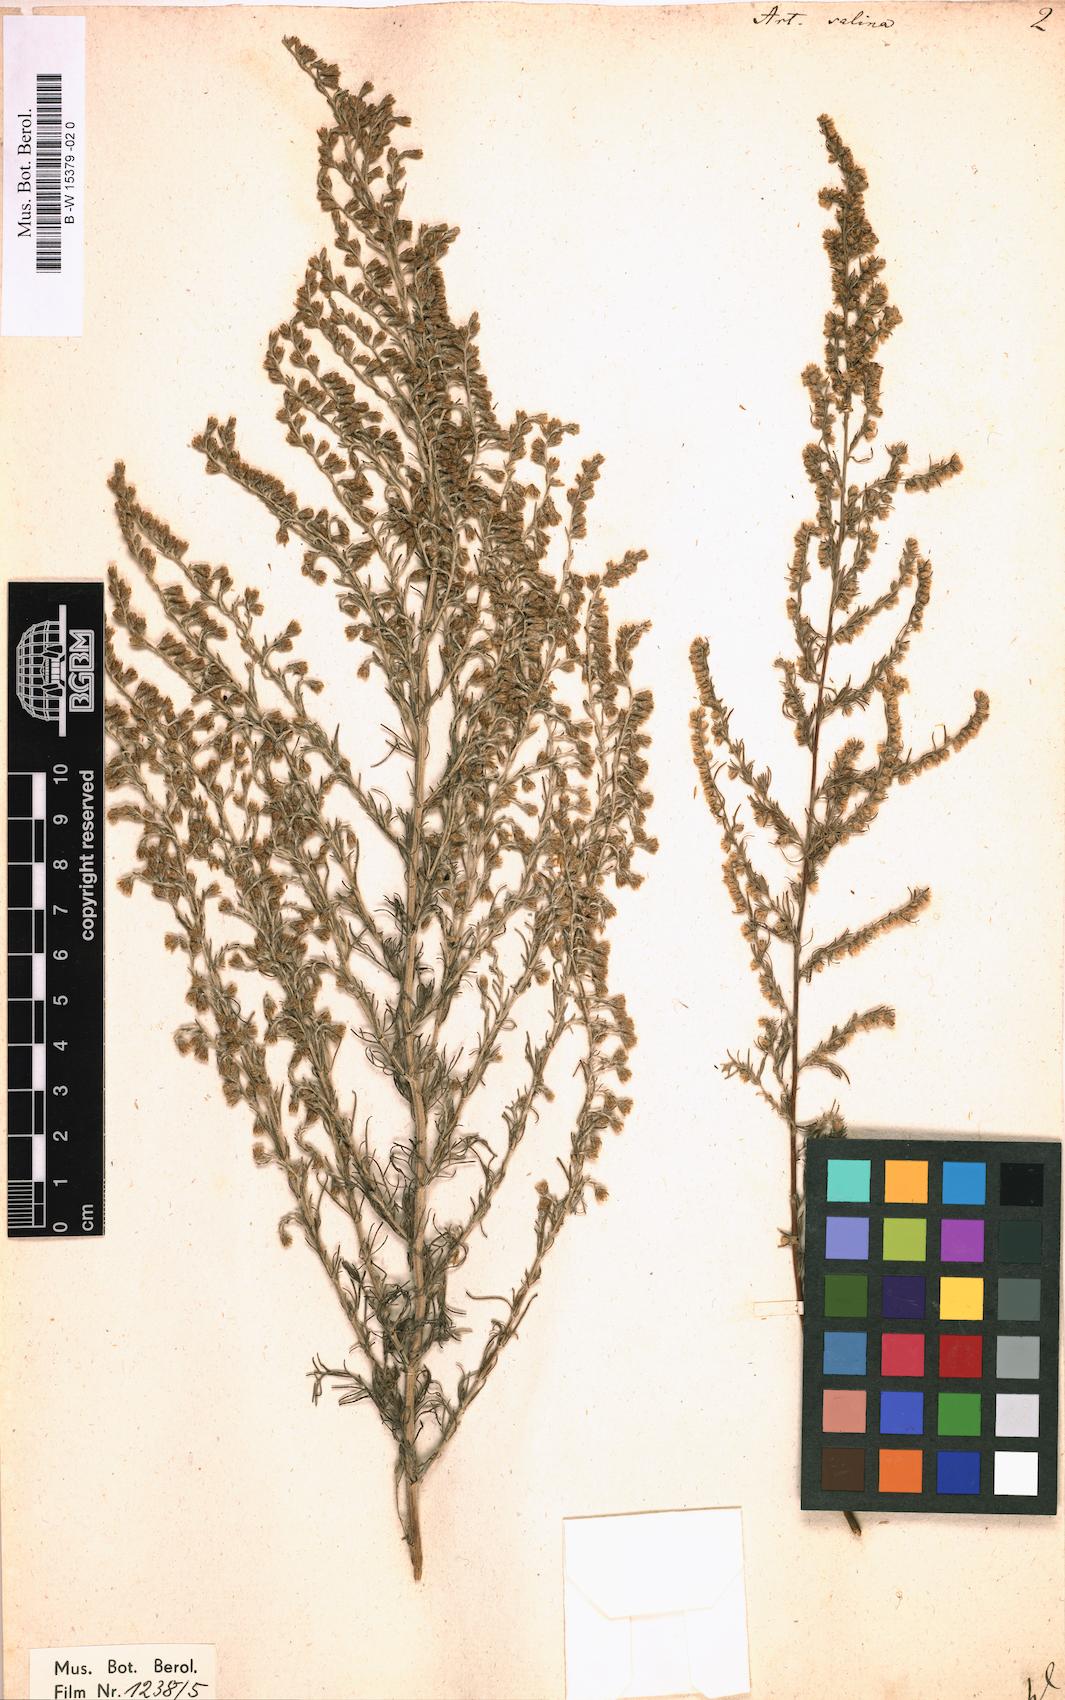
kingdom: Plantae
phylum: Tracheophyta
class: Magnoliopsida
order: Asterales
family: Asteraceae
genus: Artemisia
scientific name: Artemisia
